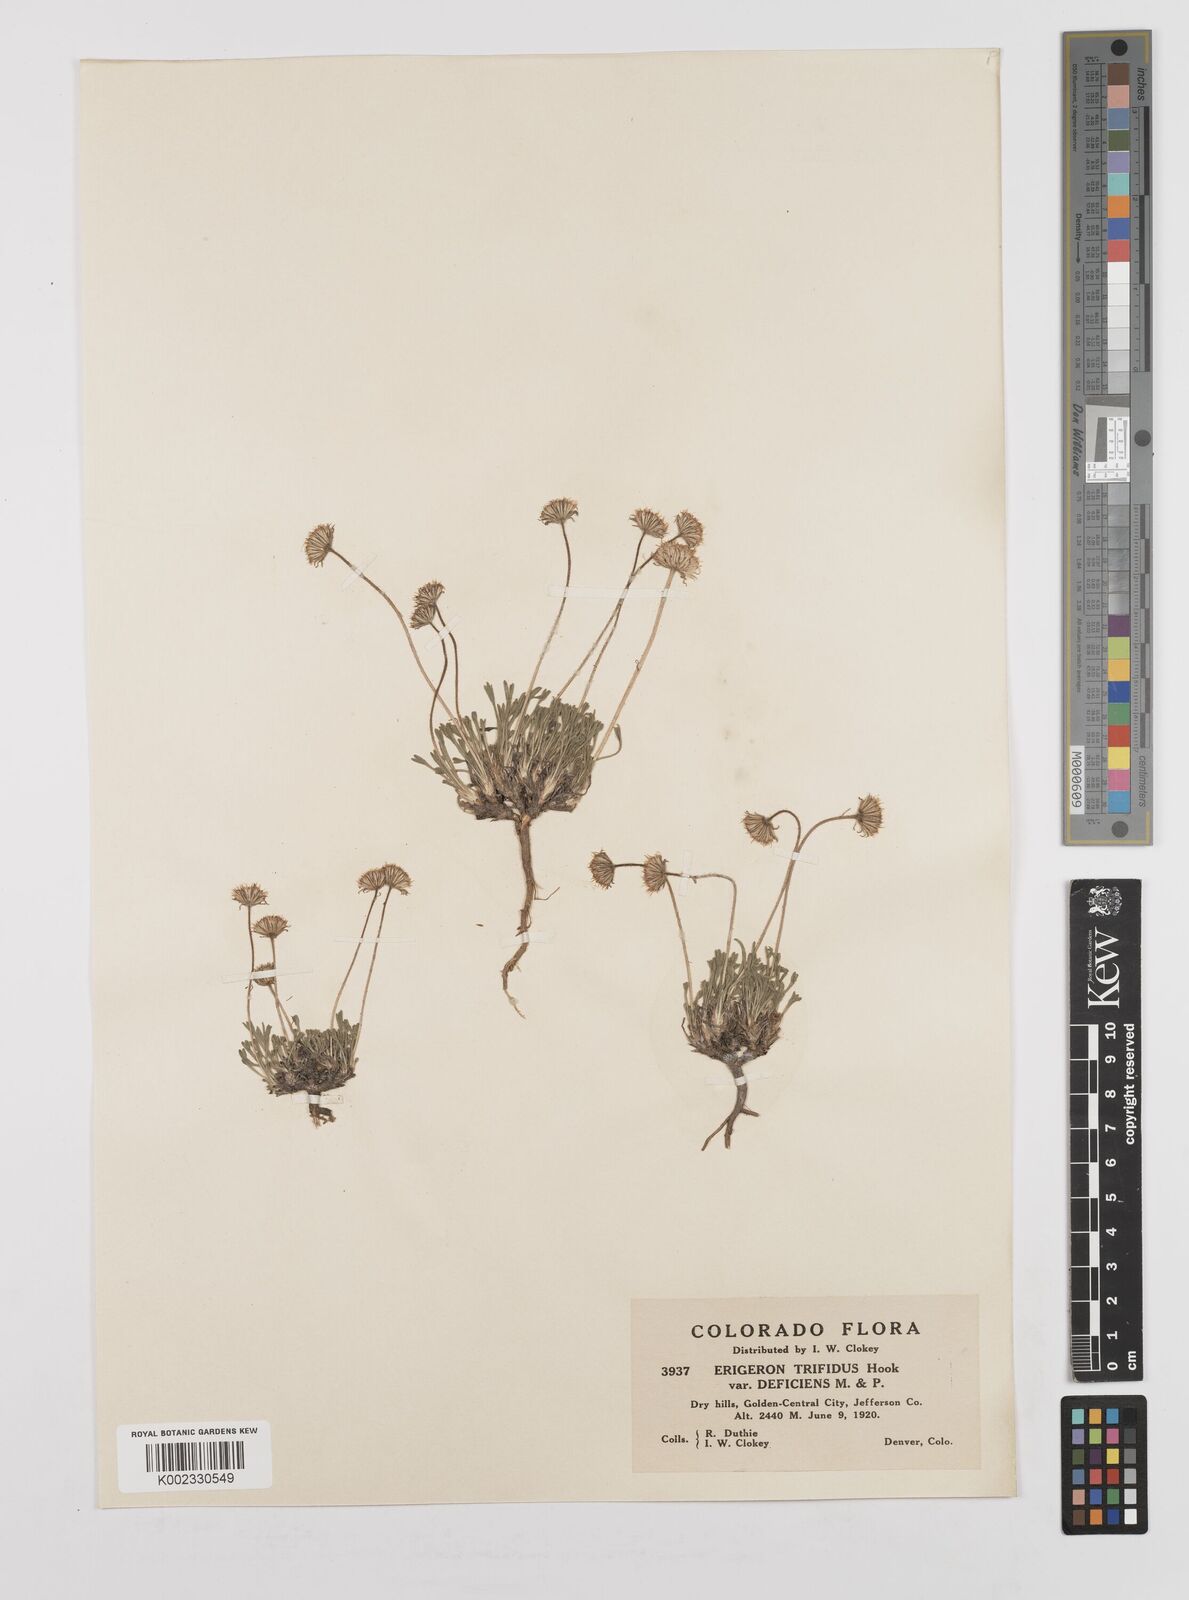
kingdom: Plantae
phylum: Tracheophyta
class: Magnoliopsida
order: Asterales
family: Asteraceae
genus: Erigeron
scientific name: Erigeron compositus
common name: Dwarf mountain fleabane
